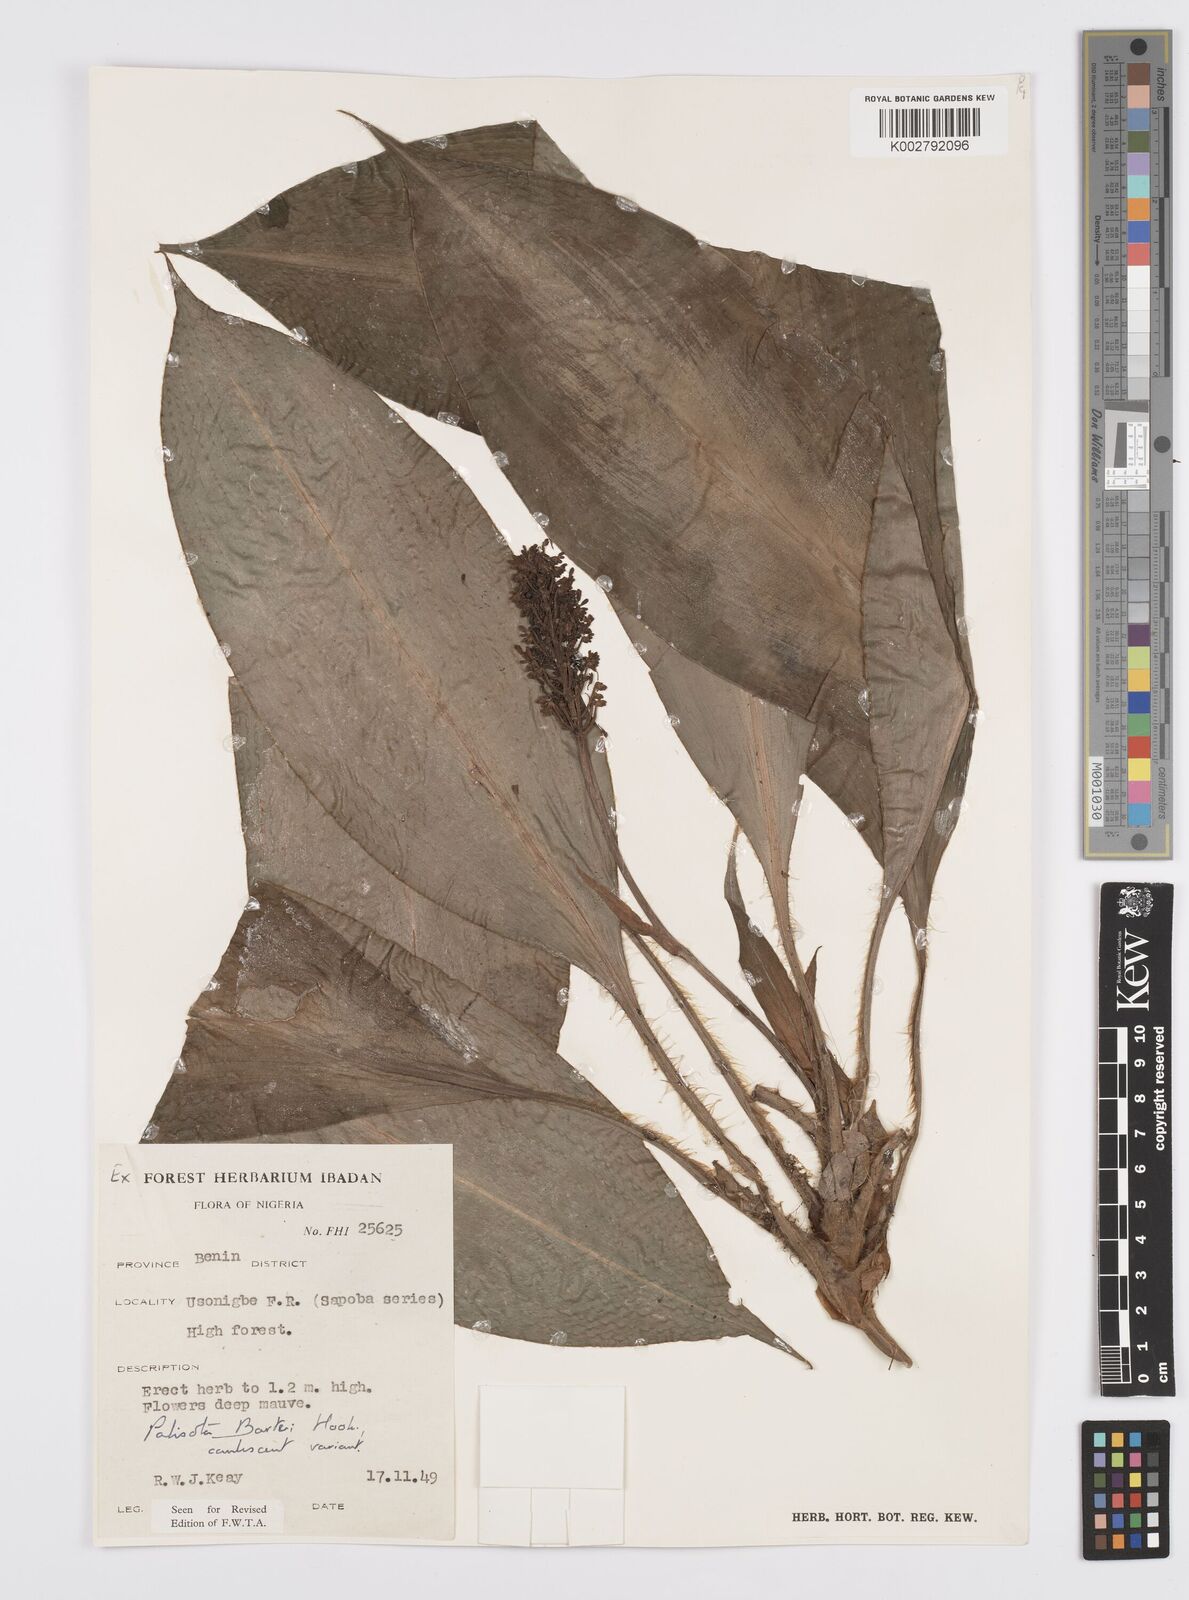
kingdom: Plantae
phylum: Tracheophyta
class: Liliopsida
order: Commelinales
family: Commelinaceae
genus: Palisota
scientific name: Palisota barteri
